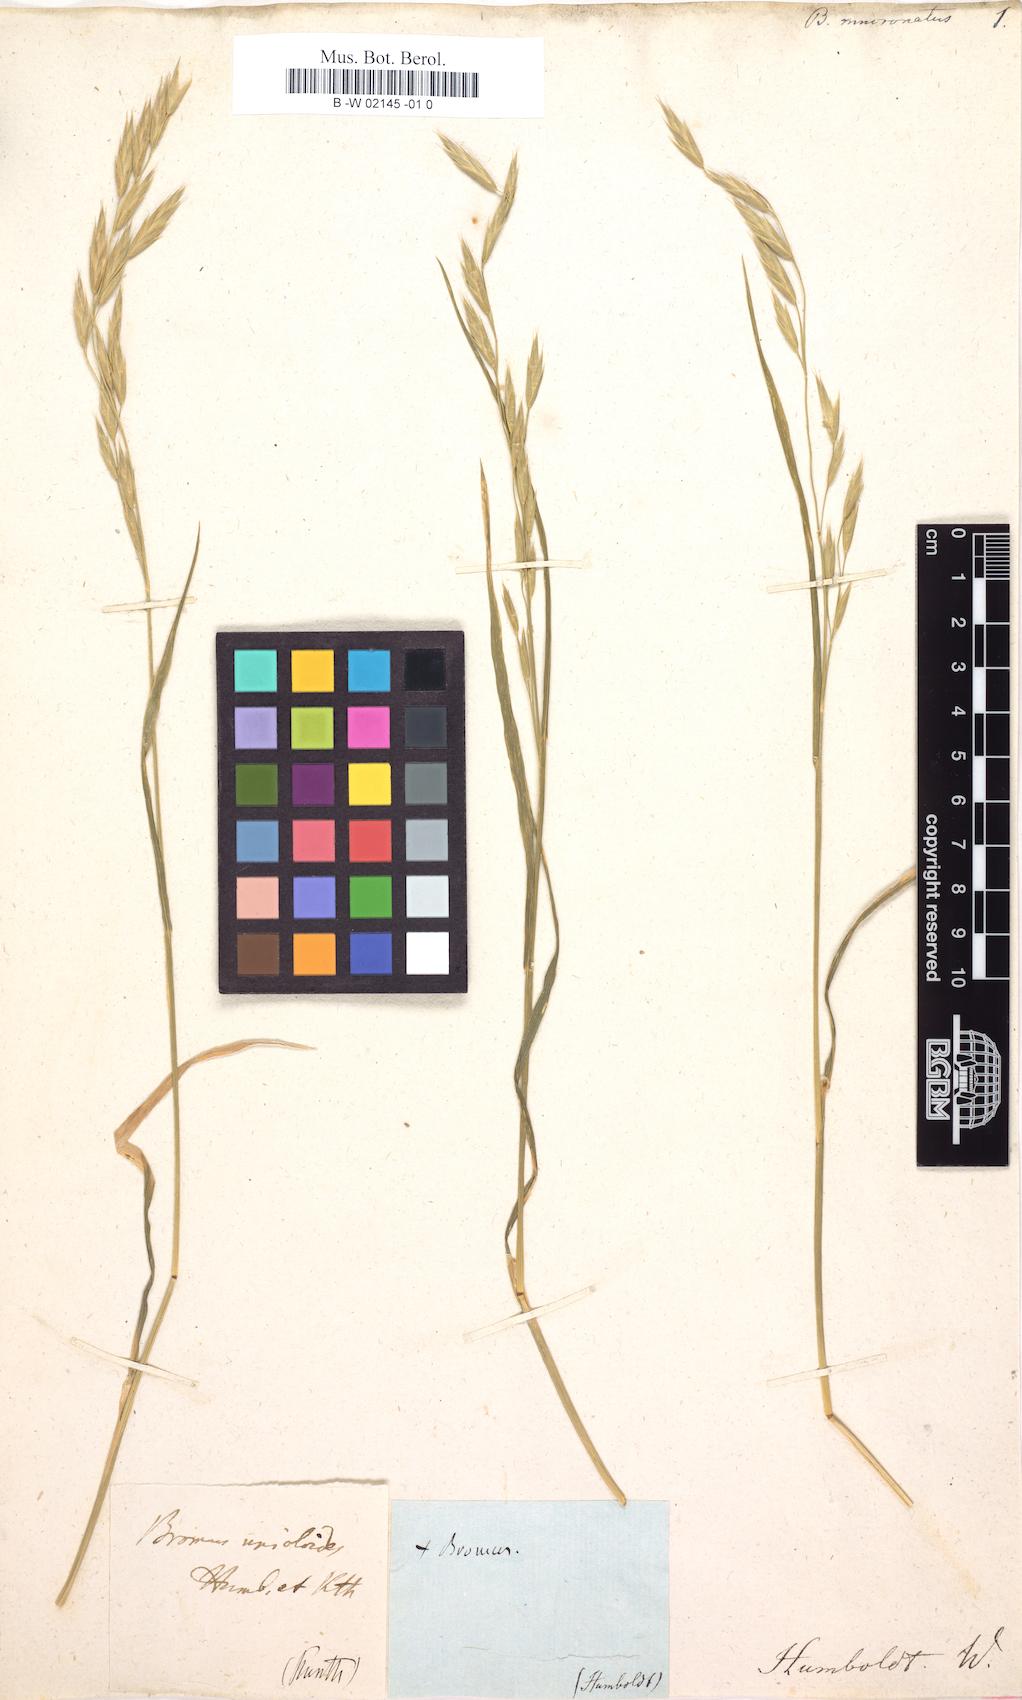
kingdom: Plantae
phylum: Tracheophyta
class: Liliopsida
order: Poales
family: Poaceae
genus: Bromus
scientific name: Bromus catharticus
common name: Rescuegrass
